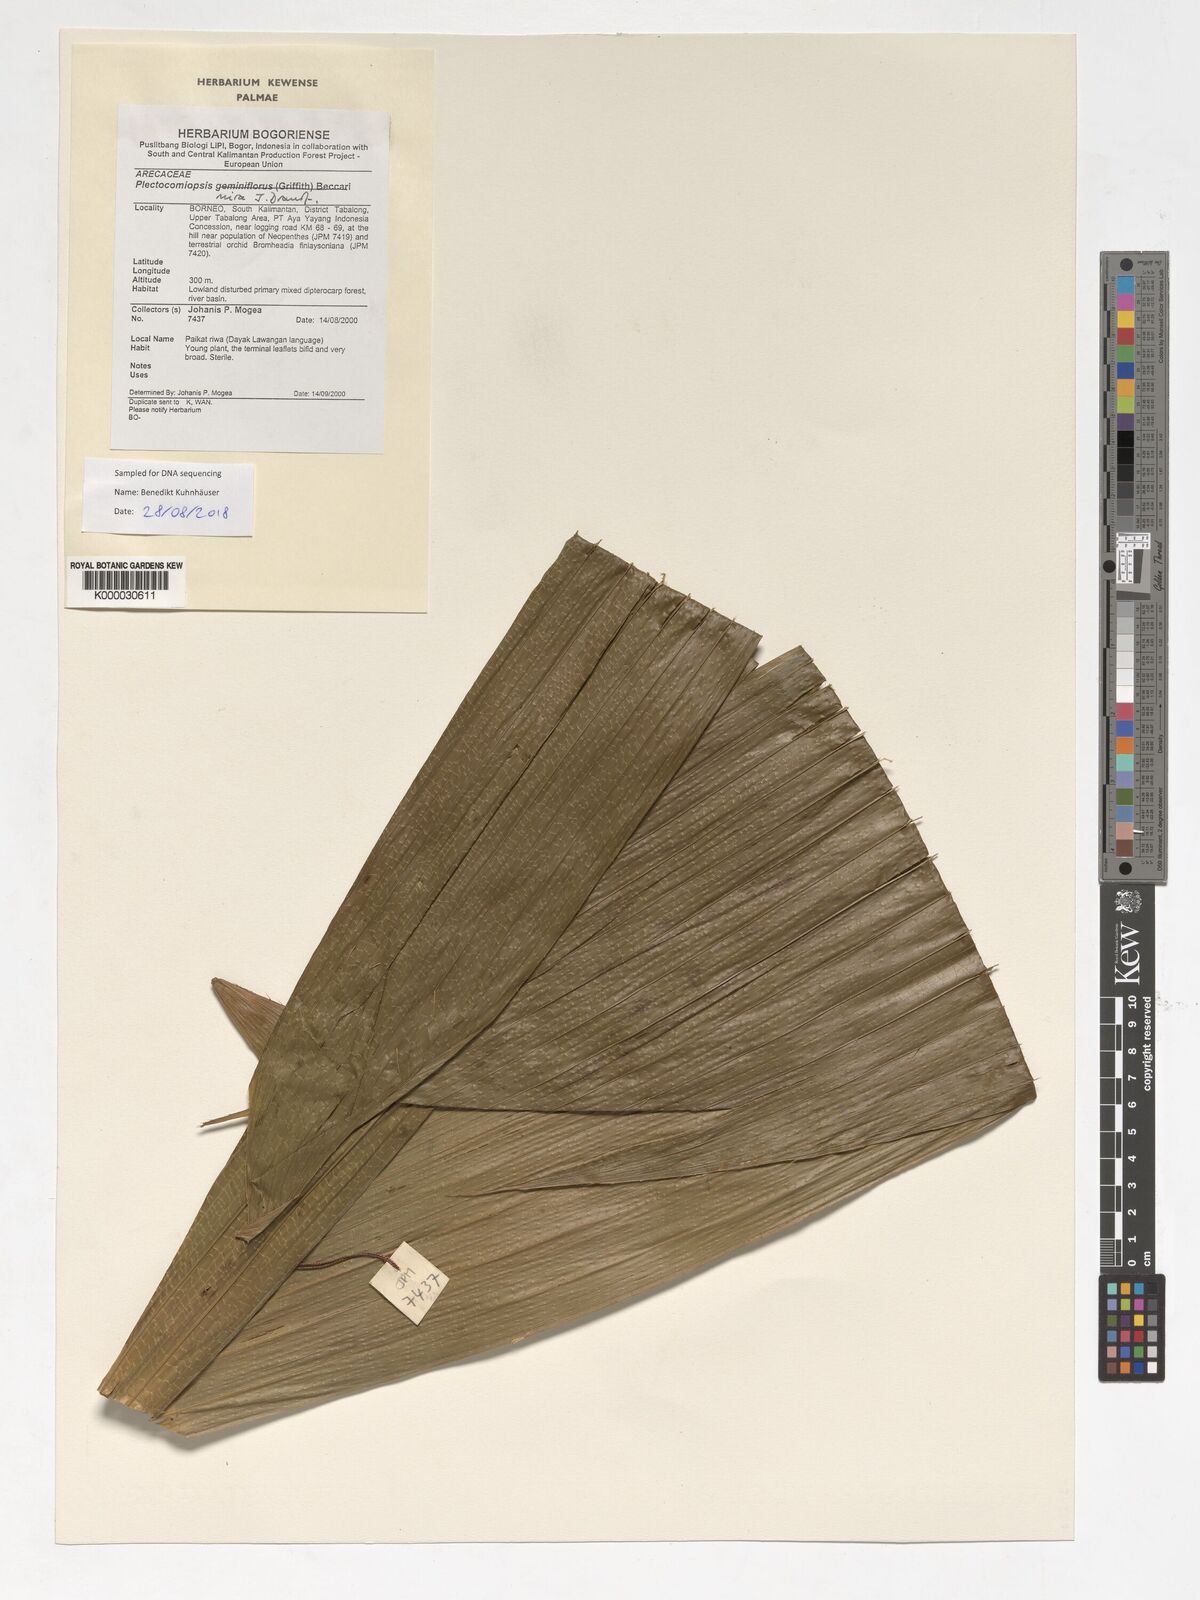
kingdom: Plantae
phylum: Tracheophyta
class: Liliopsida
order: Arecales
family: Arecaceae
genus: Plectocomiopsis
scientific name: Plectocomiopsis mira
